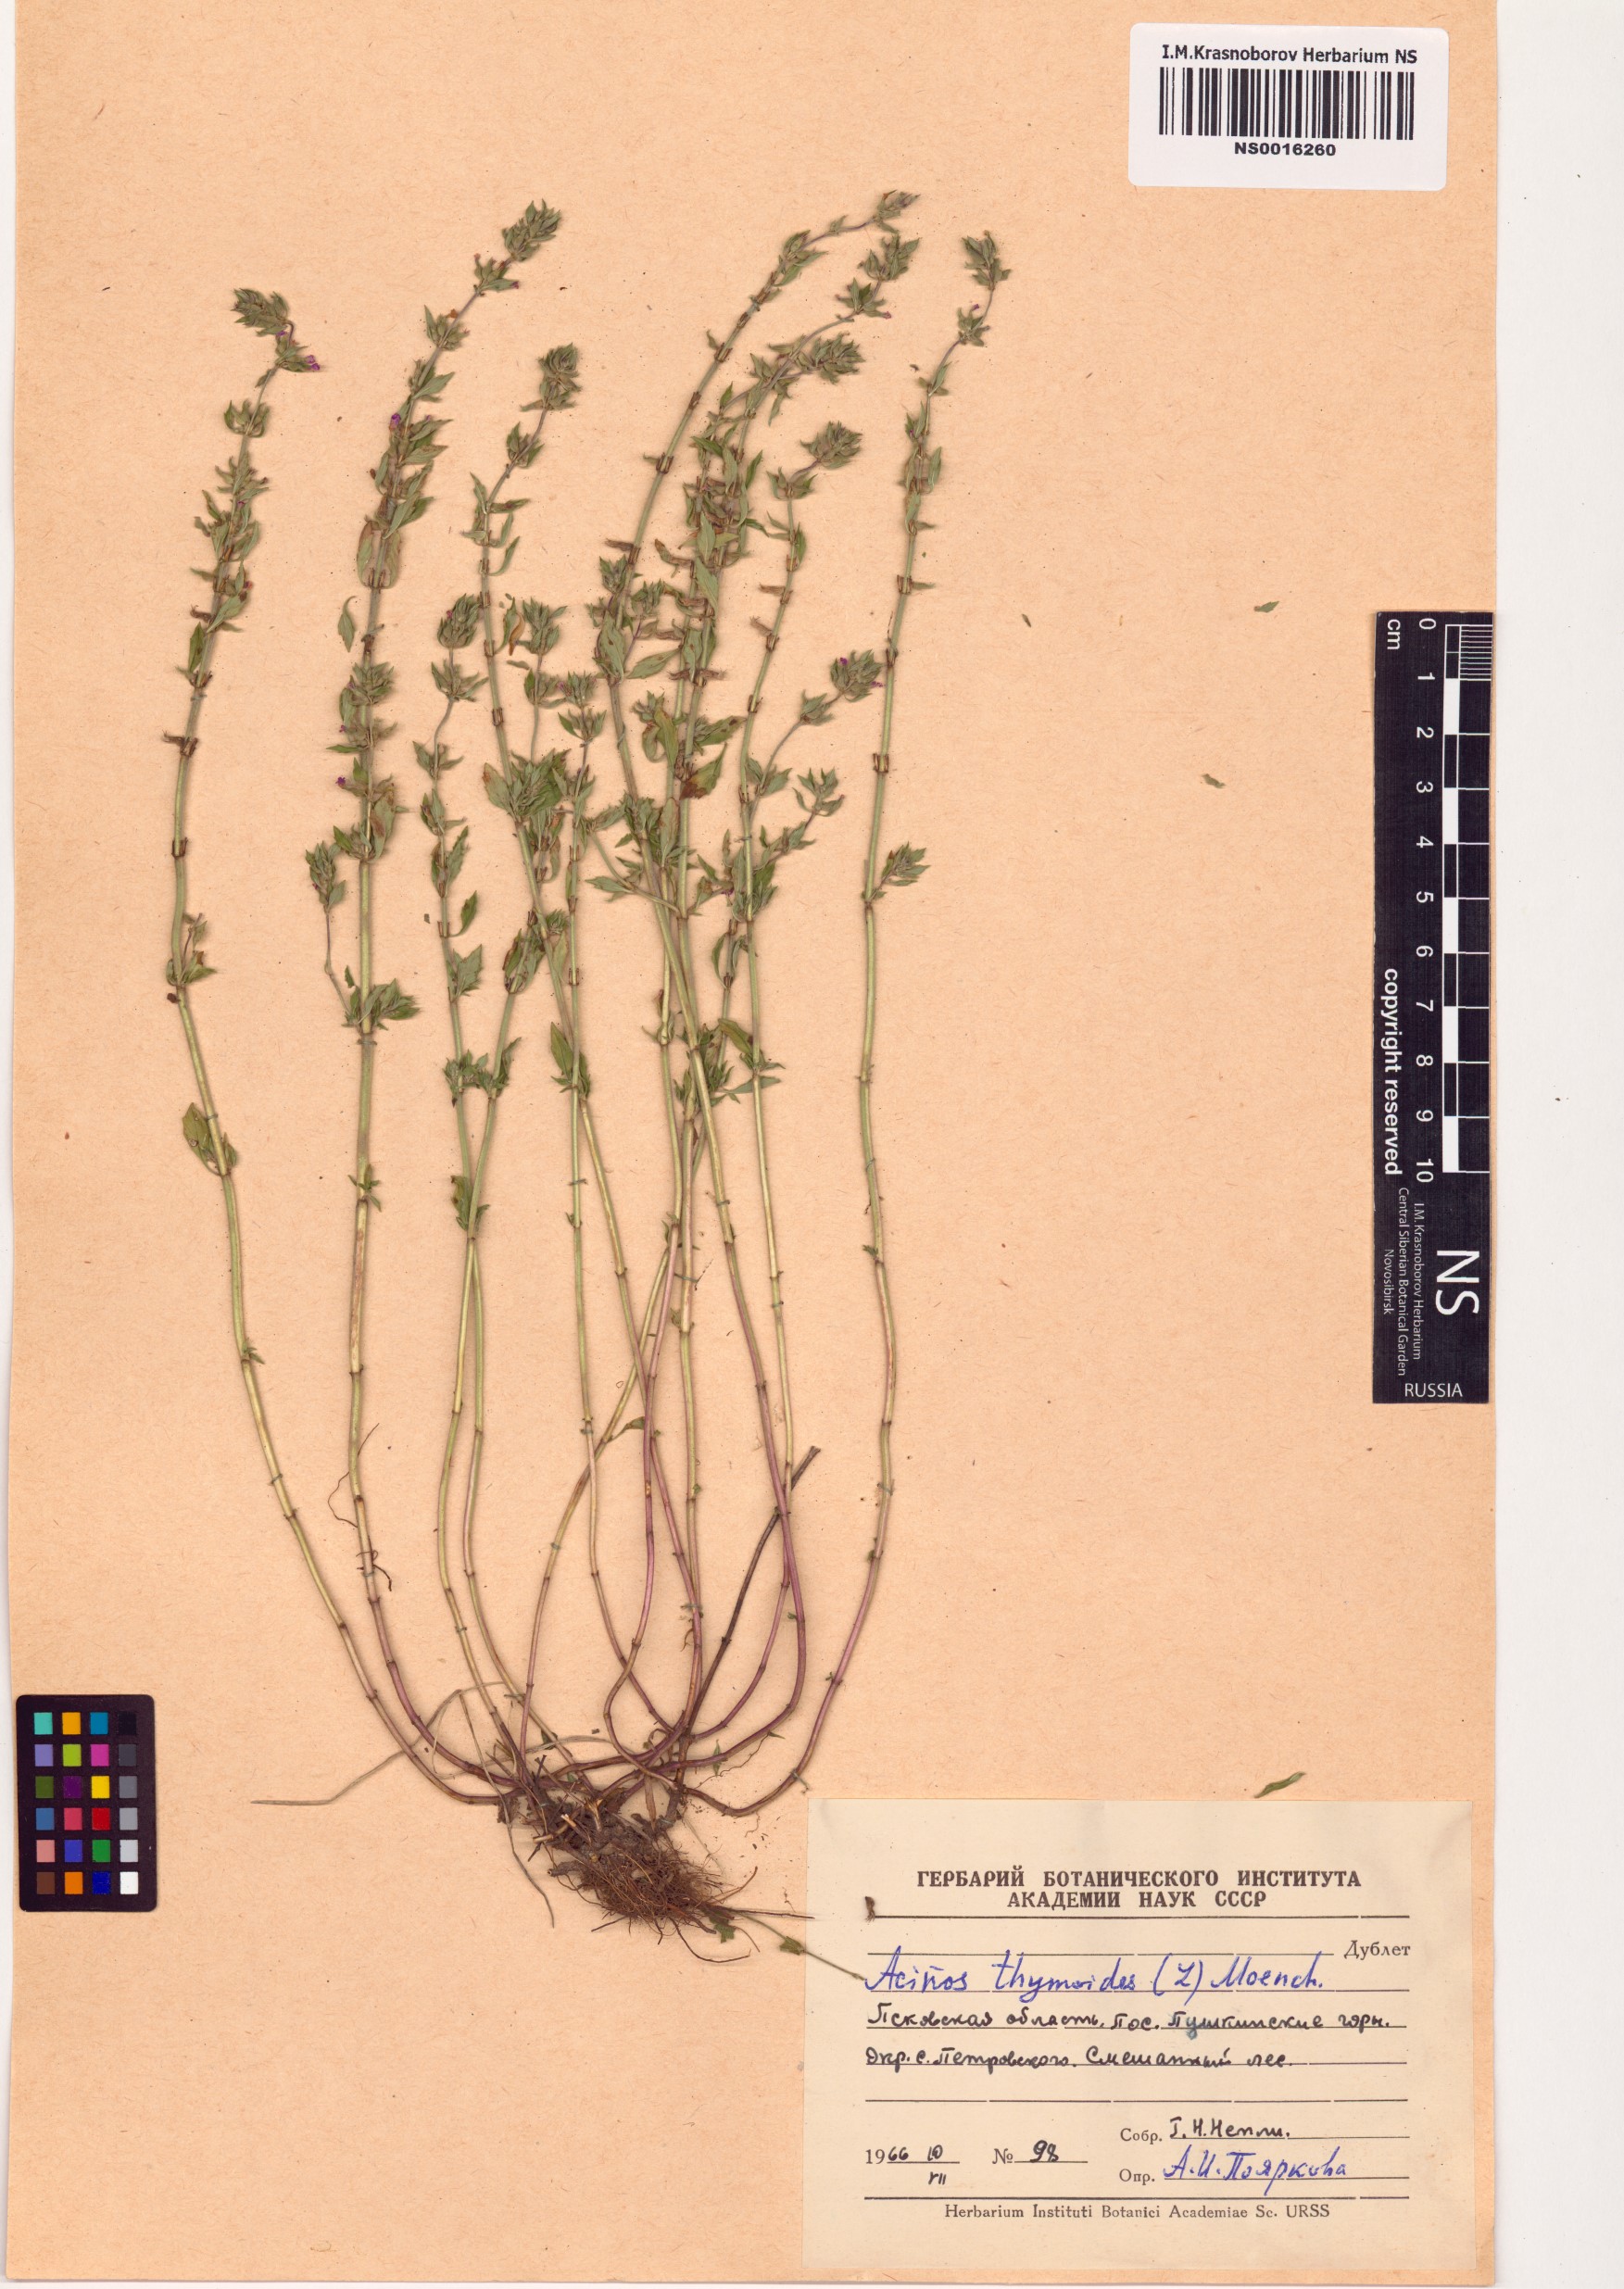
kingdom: Plantae
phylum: Tracheophyta
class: Magnoliopsida
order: Lamiales
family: Lamiaceae
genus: Clinopodium
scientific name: Clinopodium acinos
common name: Basil thyme
